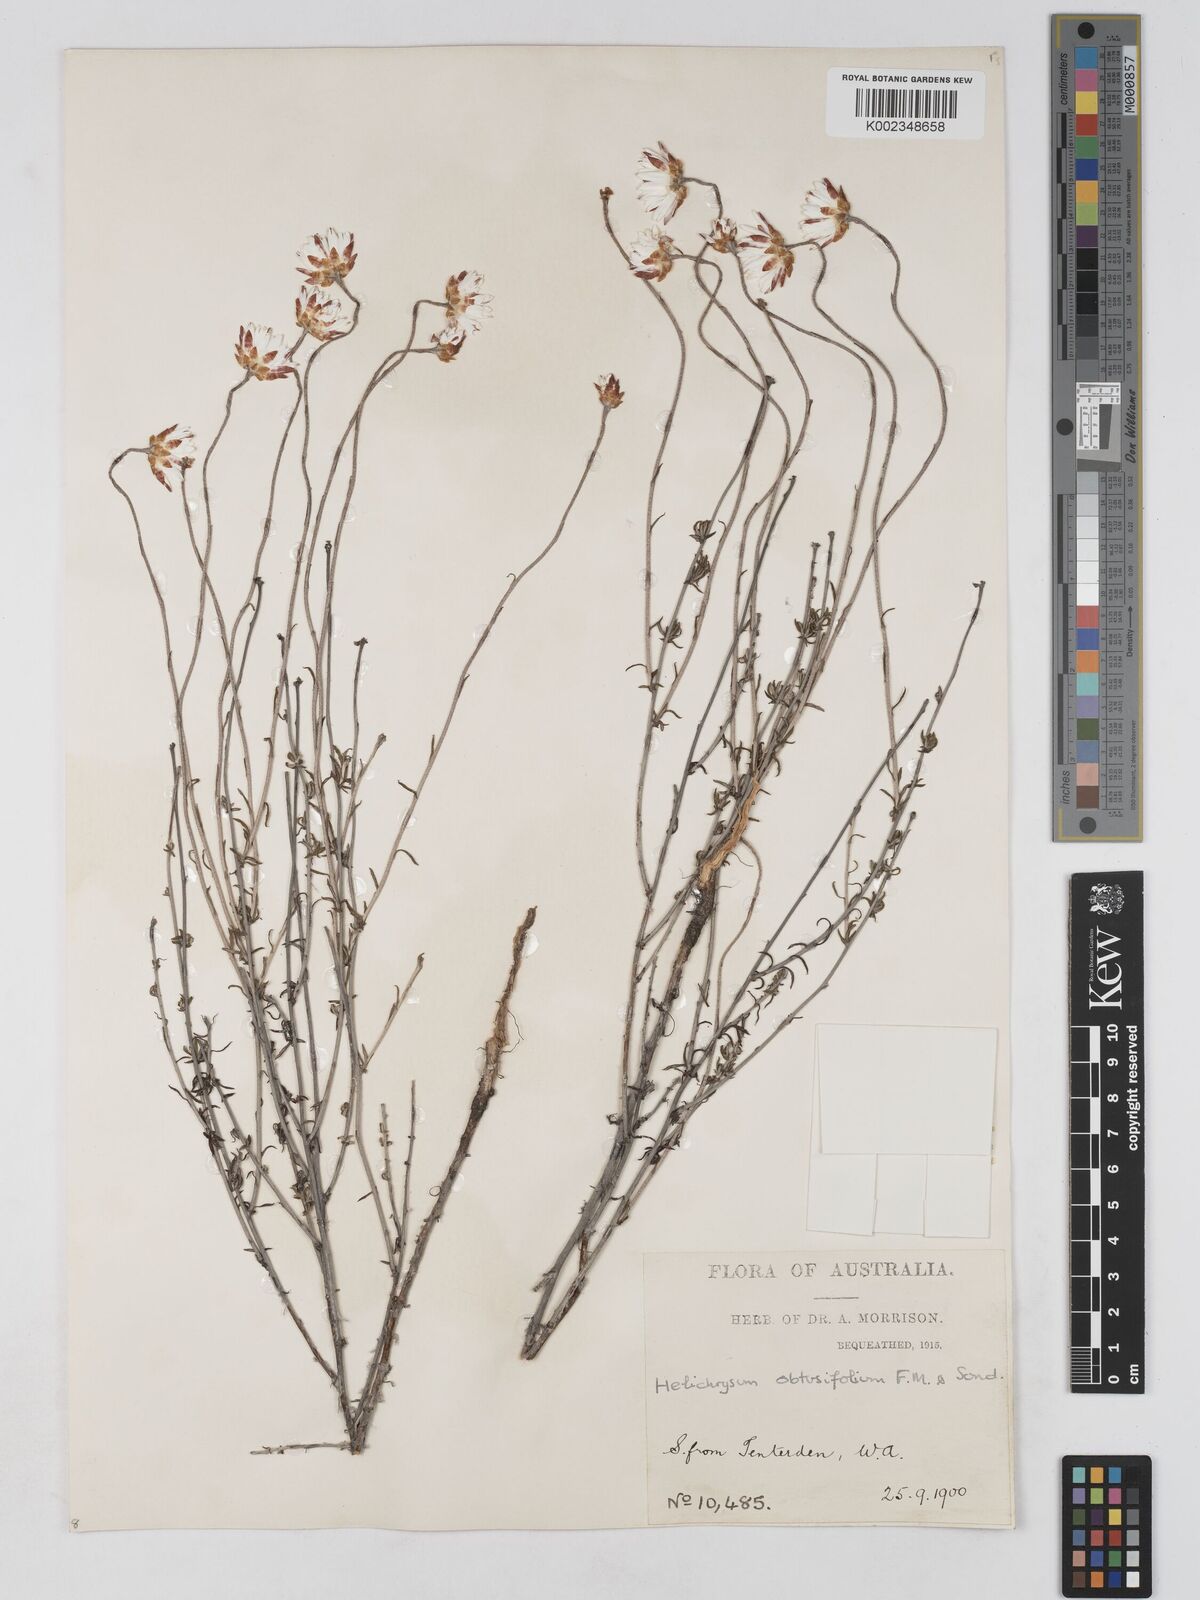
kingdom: Plantae
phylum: Tracheophyta
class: Magnoliopsida
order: Asterales
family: Asteraceae
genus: Argentipallium
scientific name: Argentipallium obtusifolium
